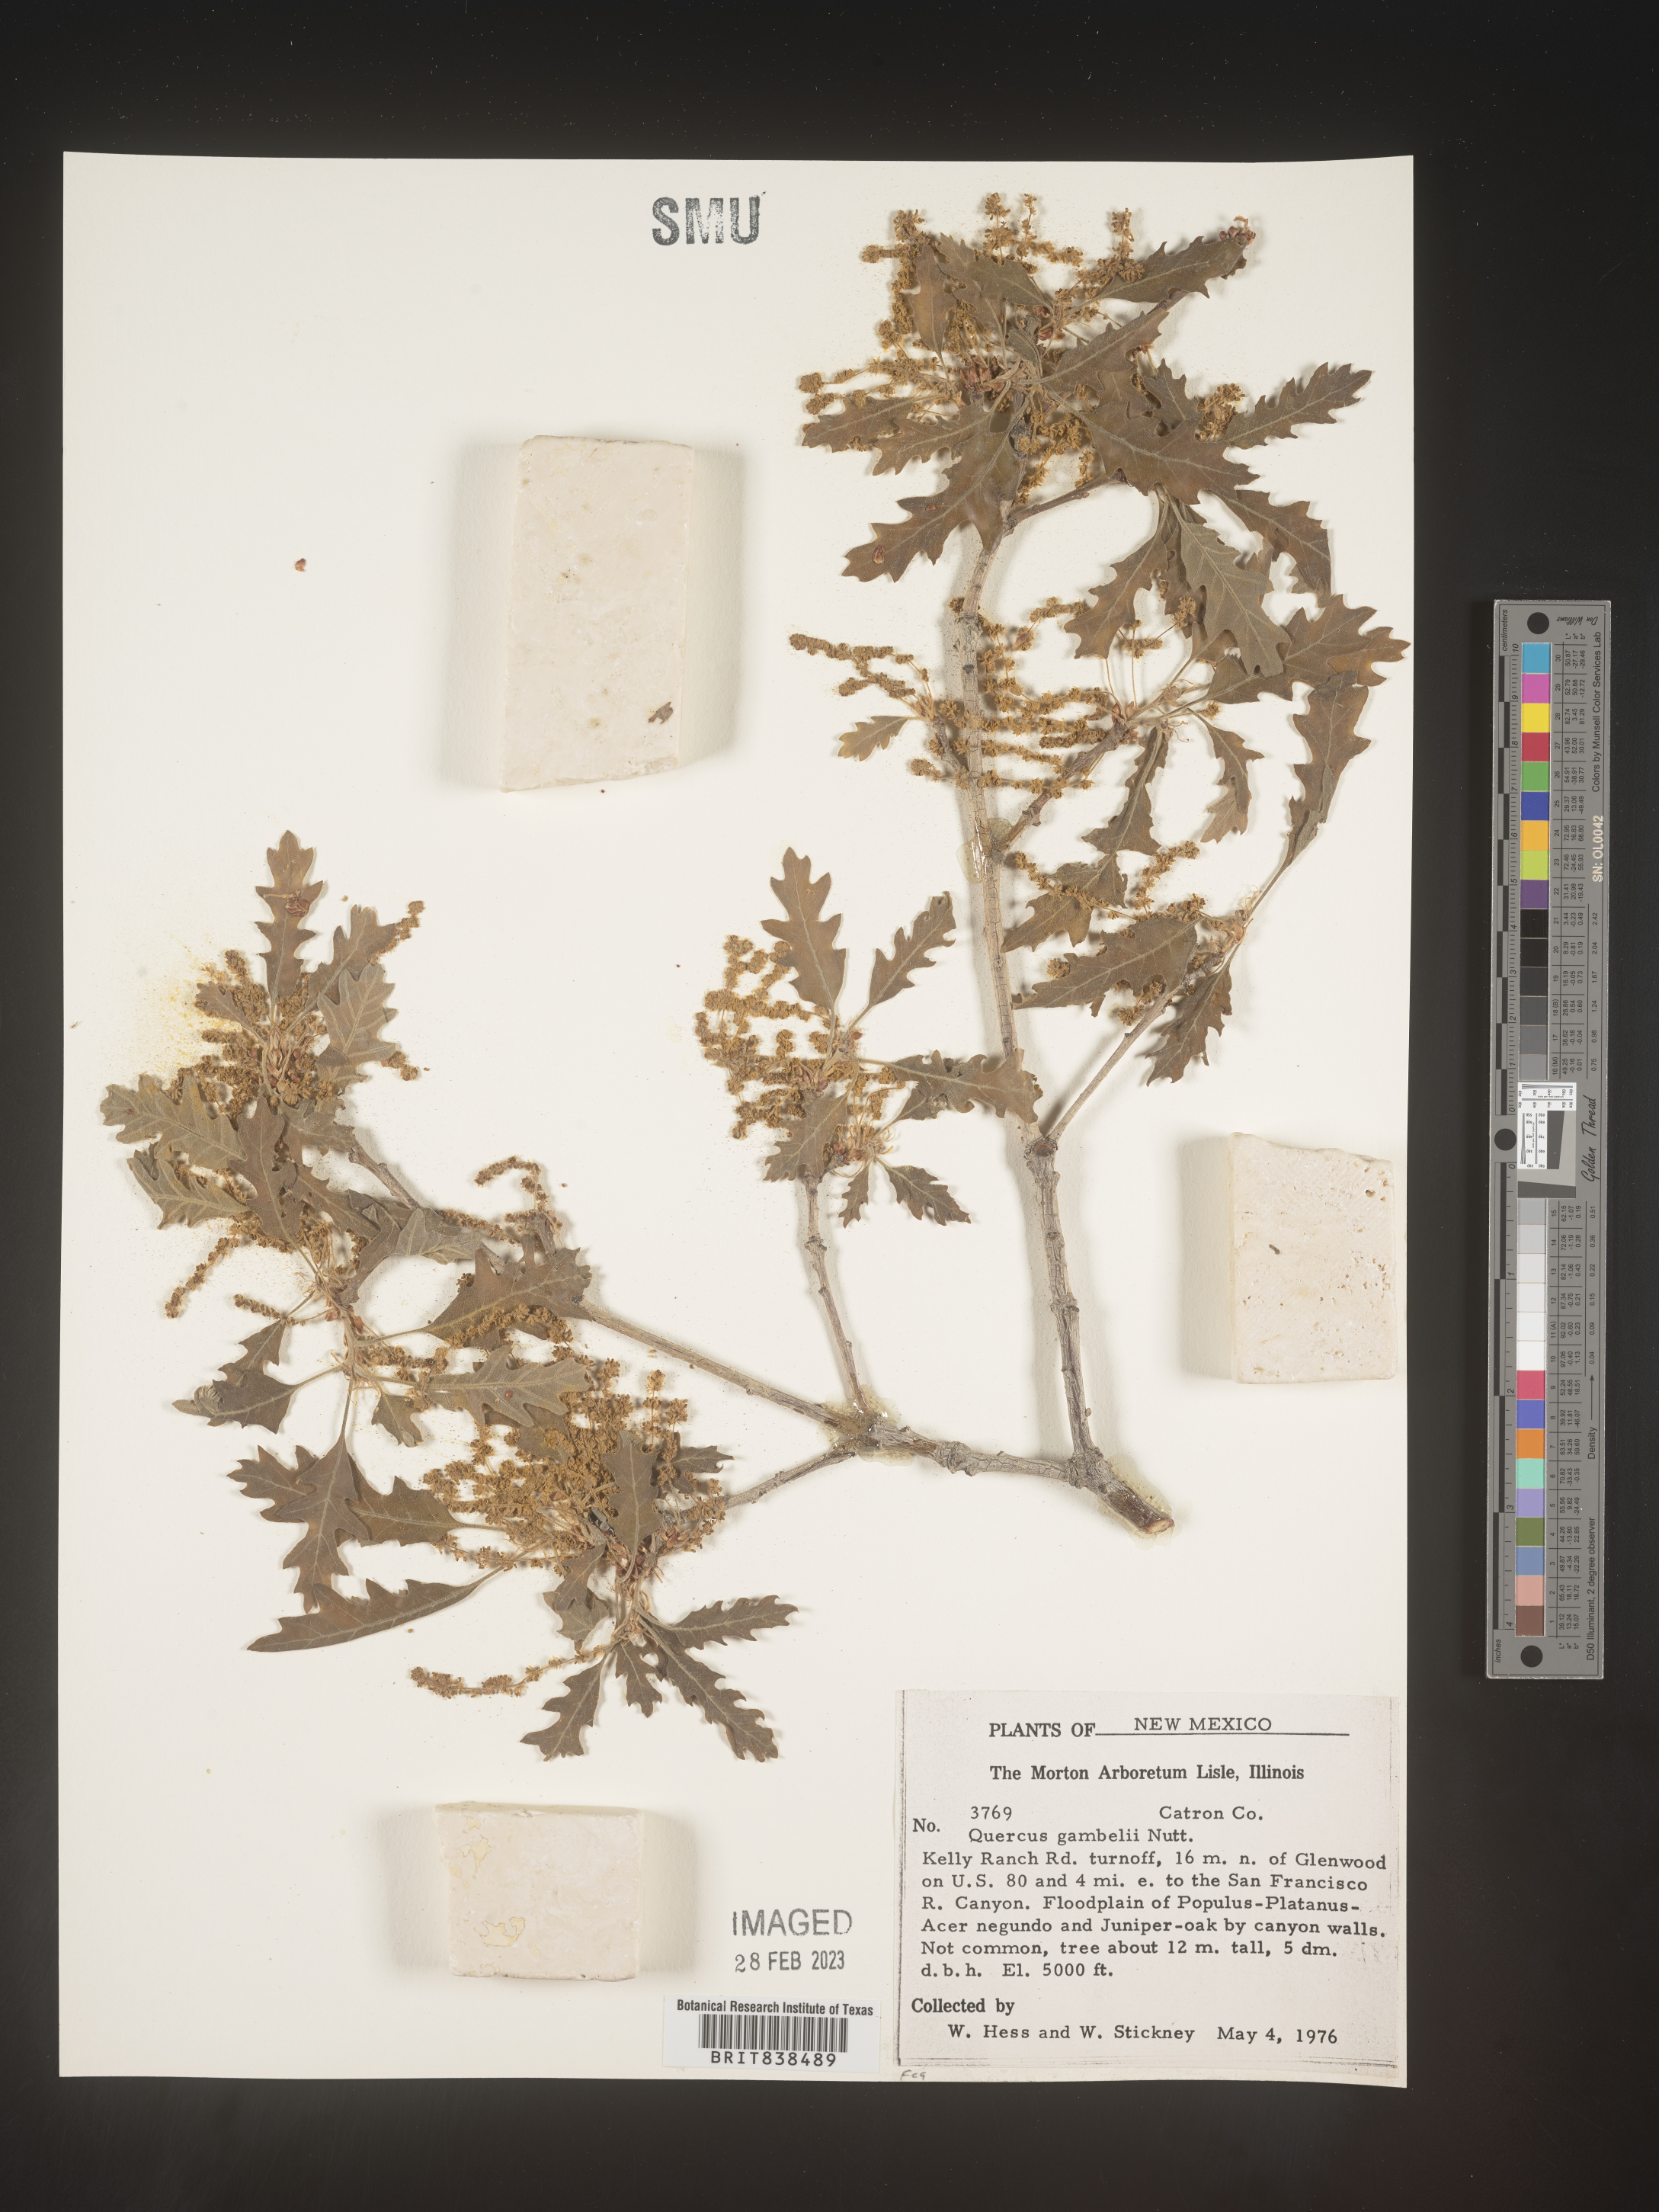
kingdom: Plantae
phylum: Tracheophyta
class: Magnoliopsida
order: Fagales
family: Fagaceae
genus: Quercus
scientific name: Quercus gambelii
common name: Gambel oak
